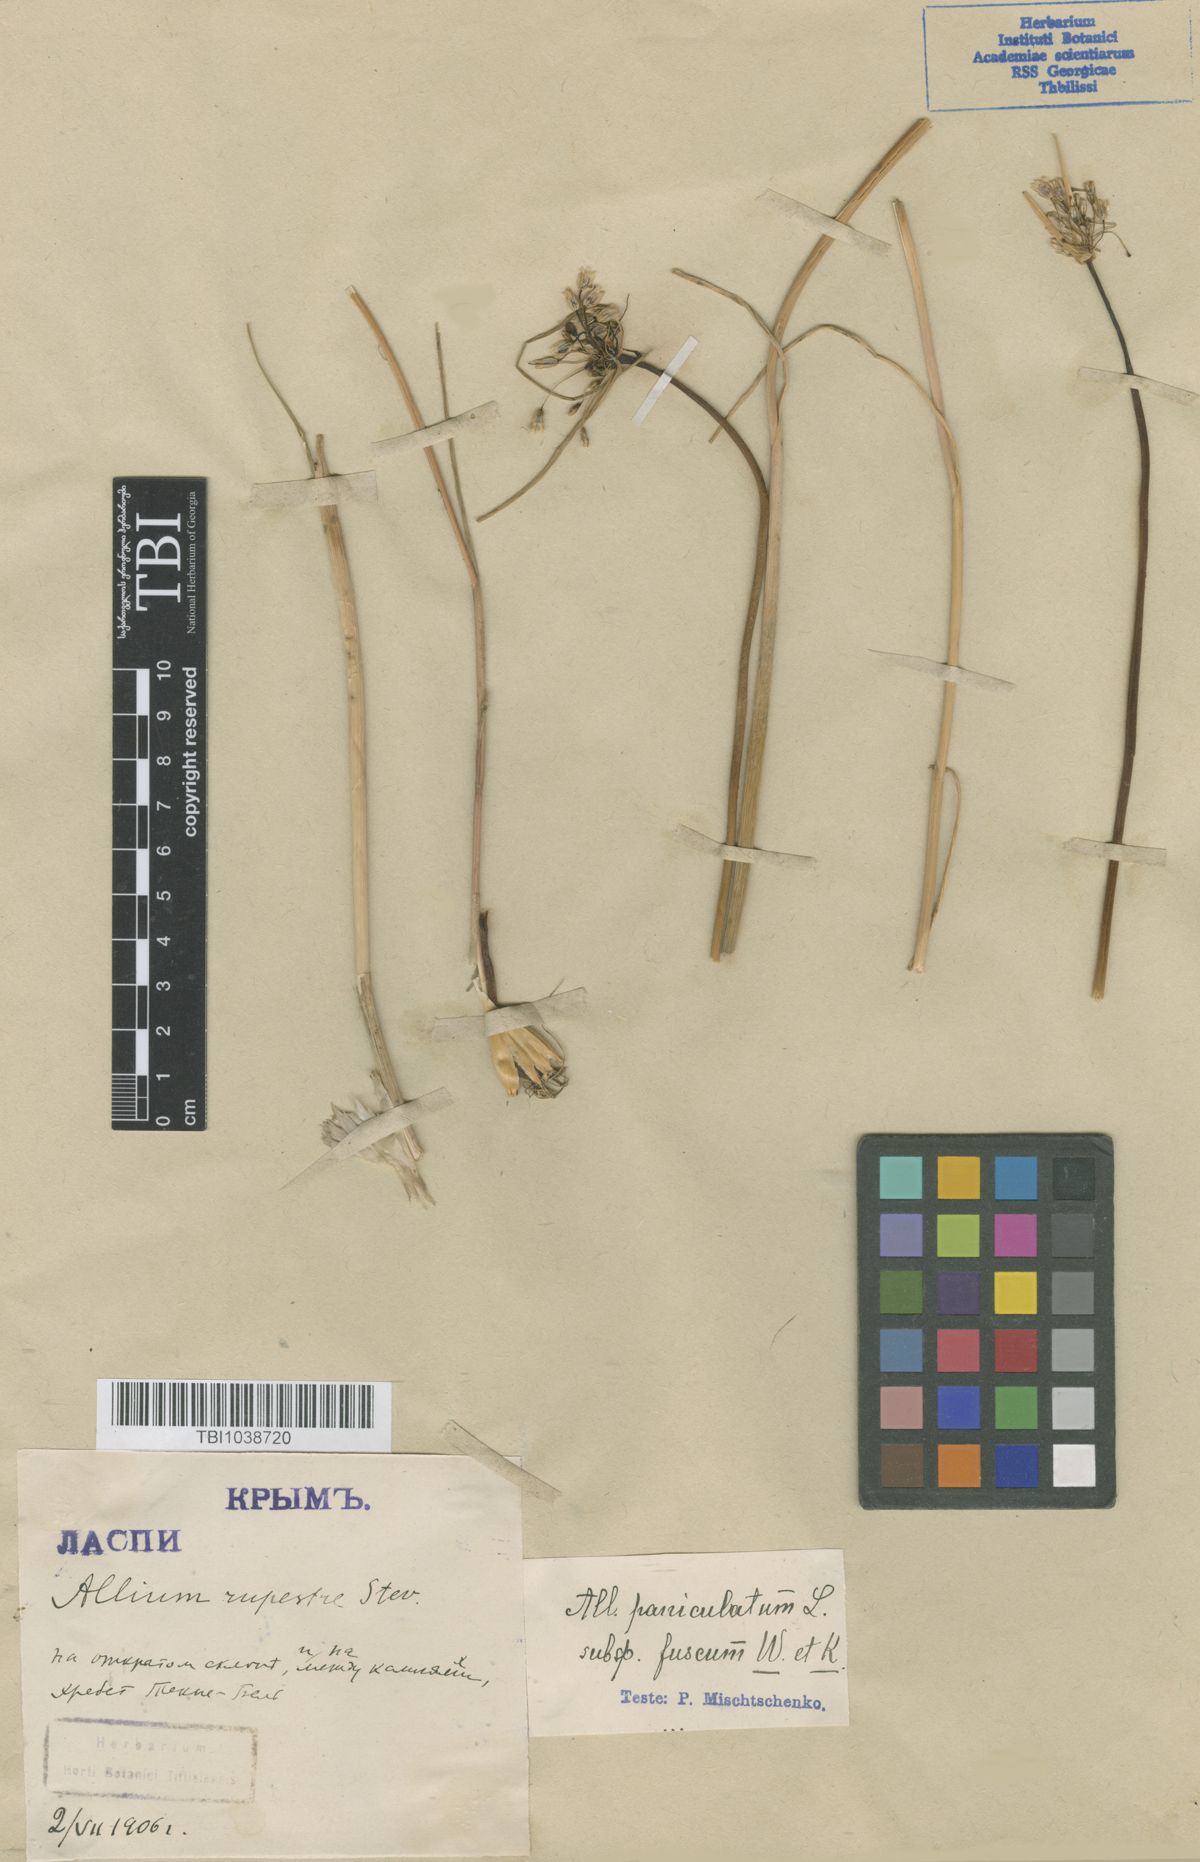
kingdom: Plantae
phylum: Tracheophyta
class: Liliopsida
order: Asparagales
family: Amaryllidaceae
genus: Allium
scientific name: Allium fuscum
